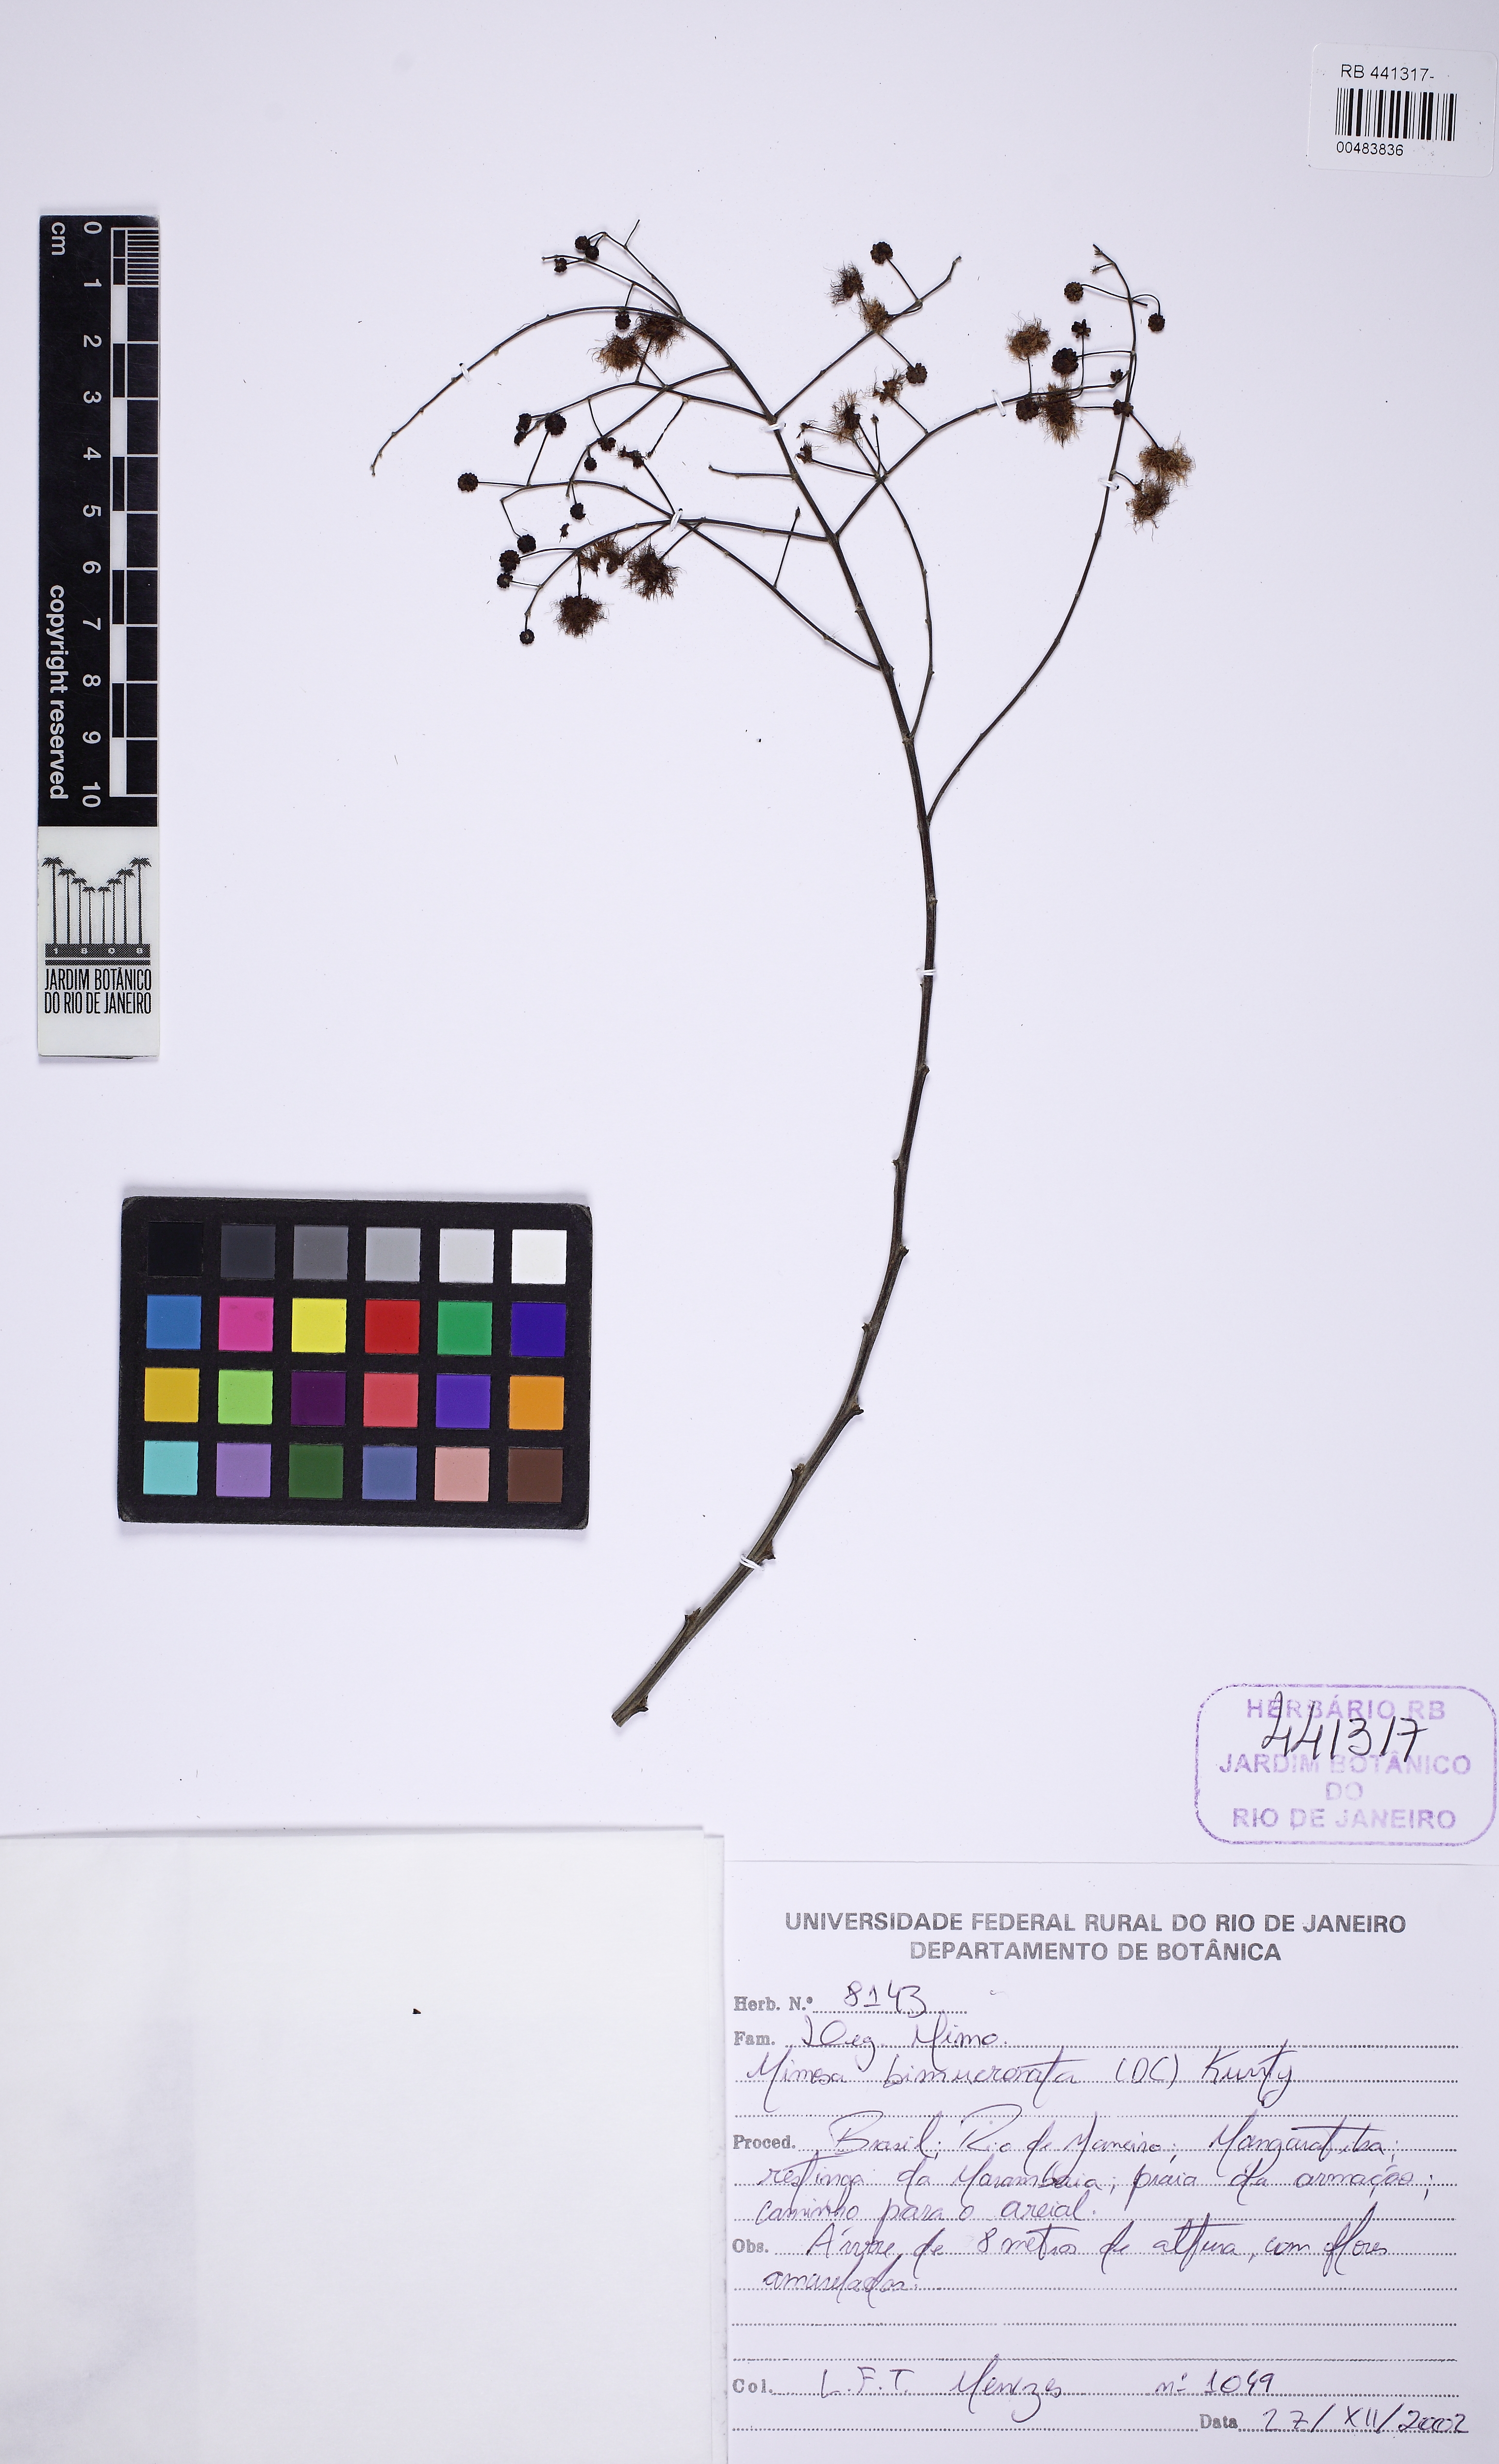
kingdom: Plantae
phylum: Tracheophyta
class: Magnoliopsida
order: Fabales
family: Fabaceae
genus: Mimosa
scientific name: Mimosa bimucronata
